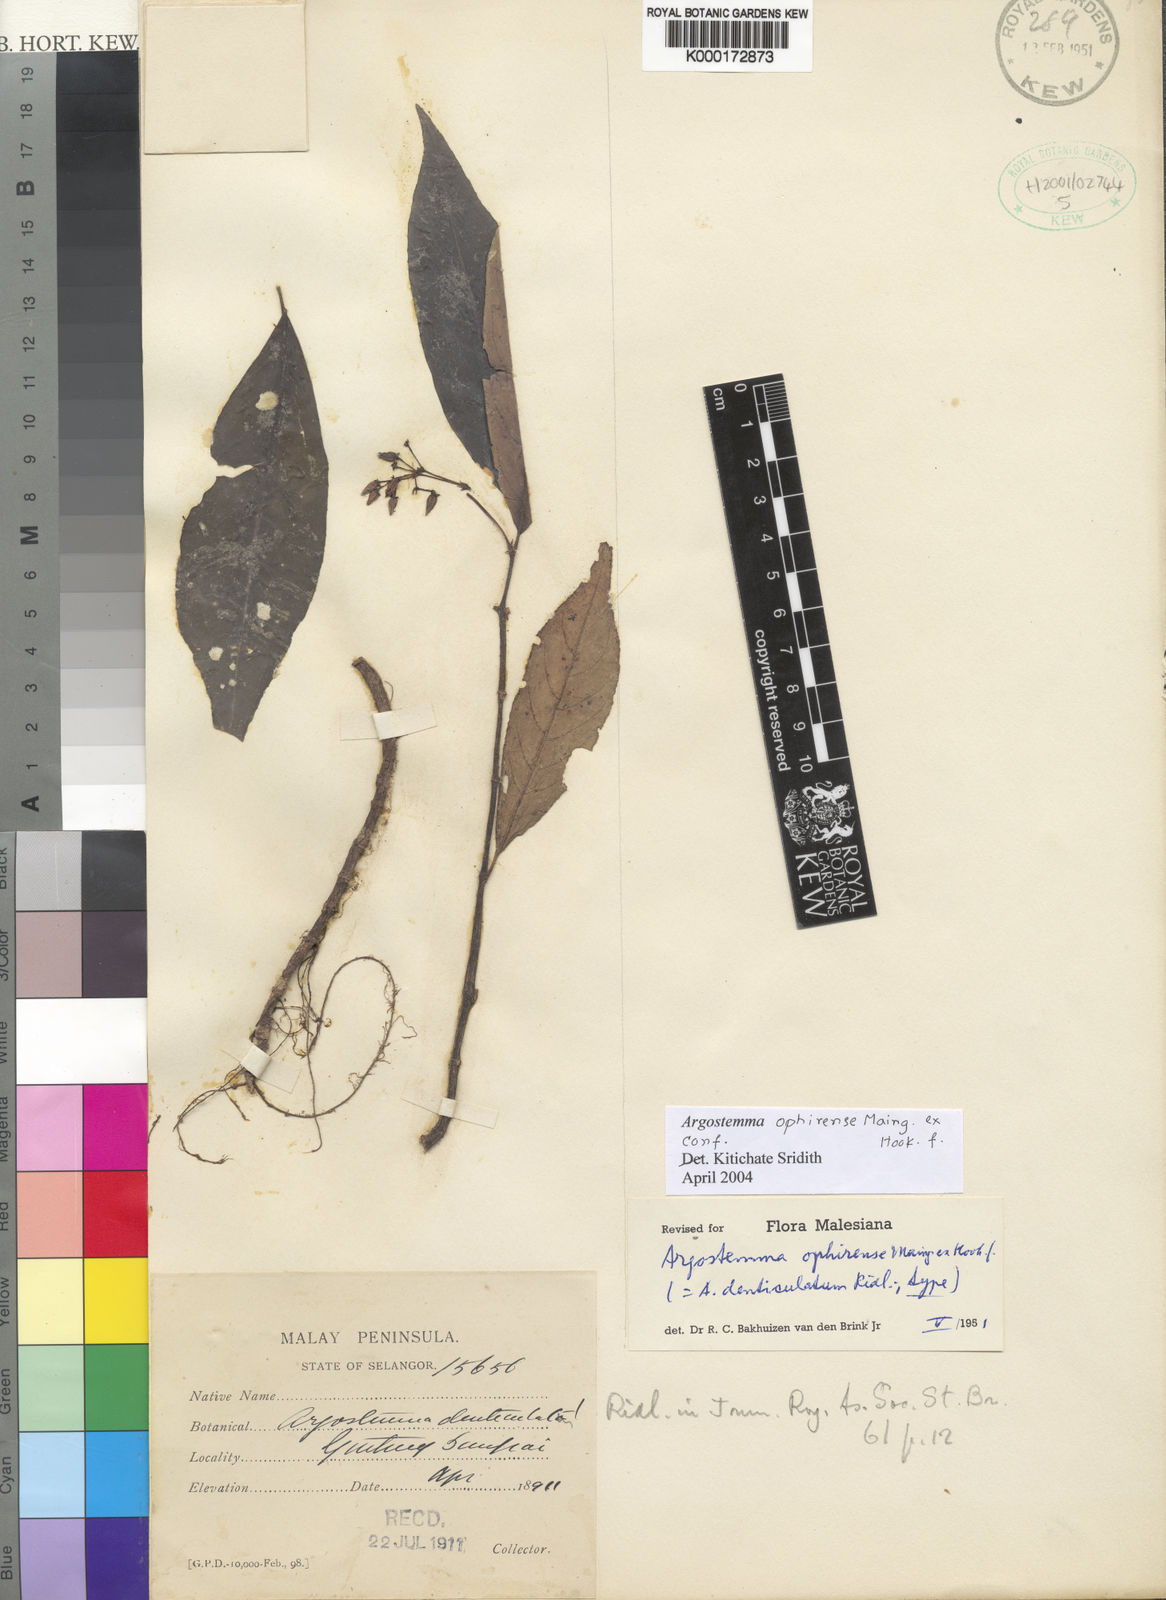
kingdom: Plantae
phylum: Tracheophyta
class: Magnoliopsida
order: Gentianales
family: Rubiaceae
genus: Argostemma
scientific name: Argostemma ophirense
